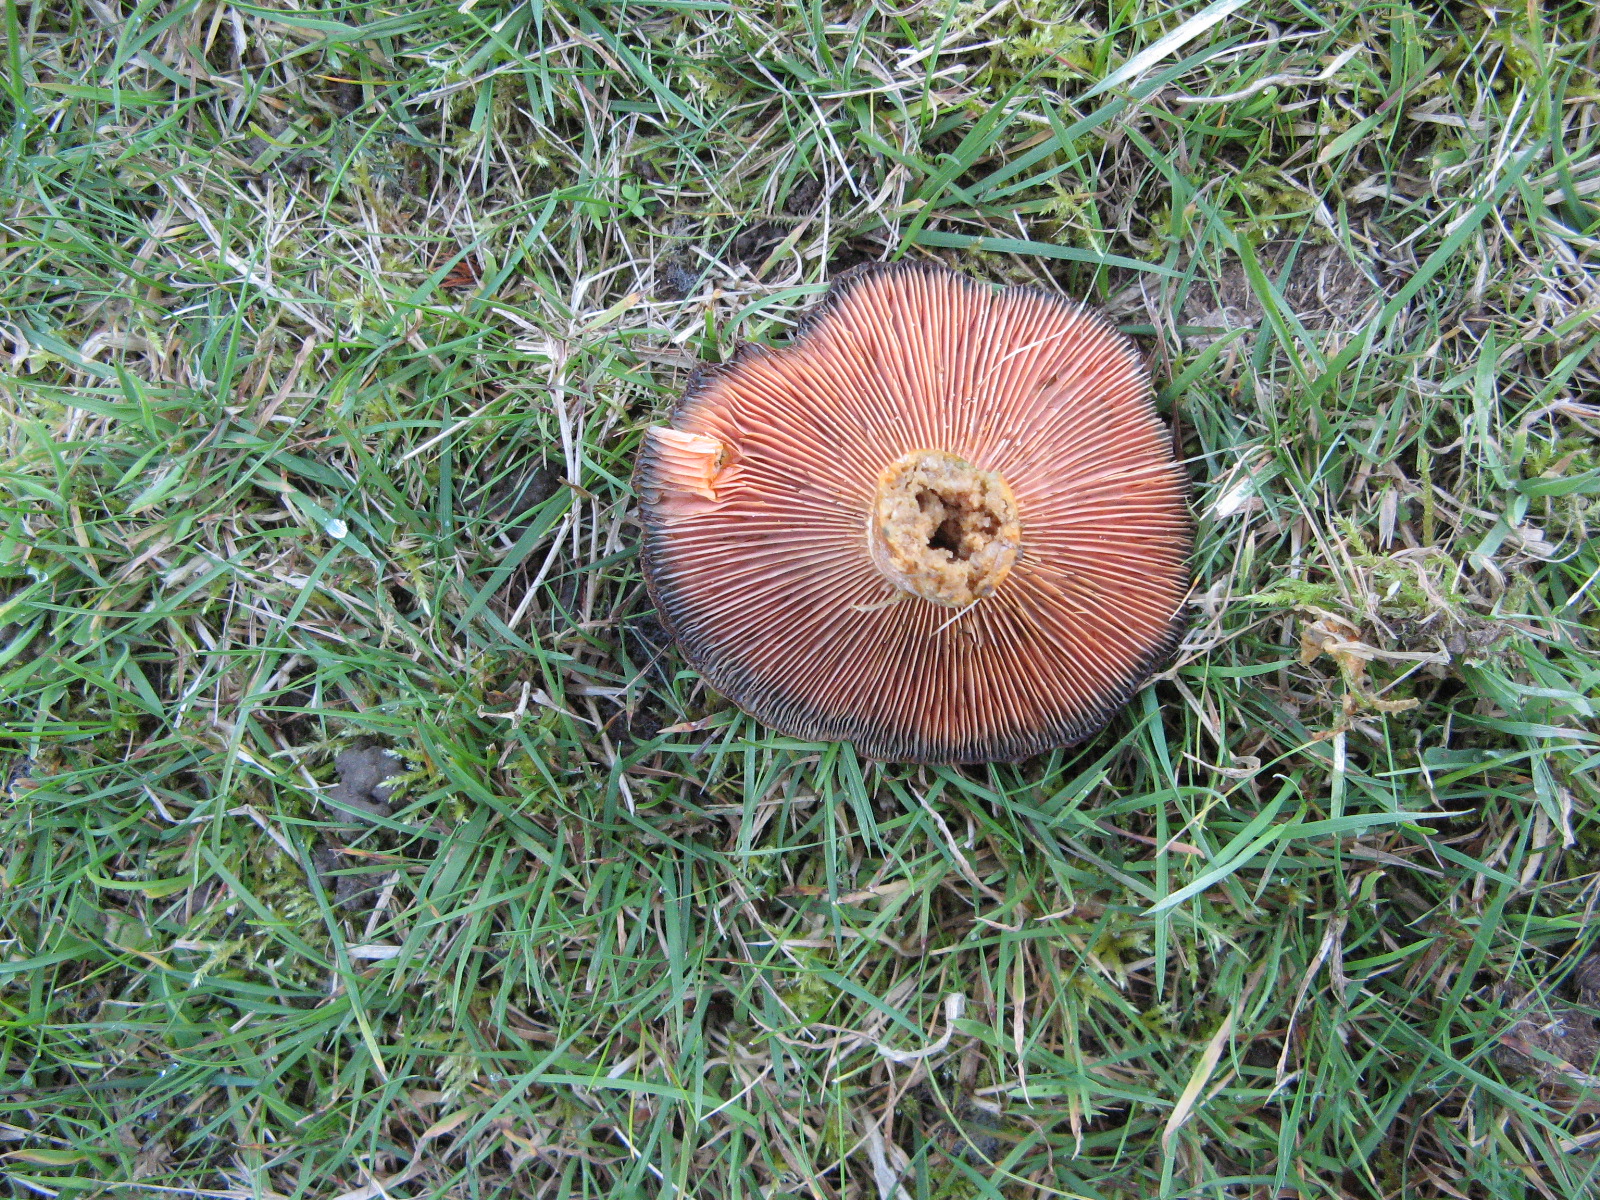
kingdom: Fungi
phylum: Basidiomycota
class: Agaricomycetes
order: Russulales
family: Russulaceae
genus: Lactarius
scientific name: Lactarius deterrimus
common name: gran-mælkehat
